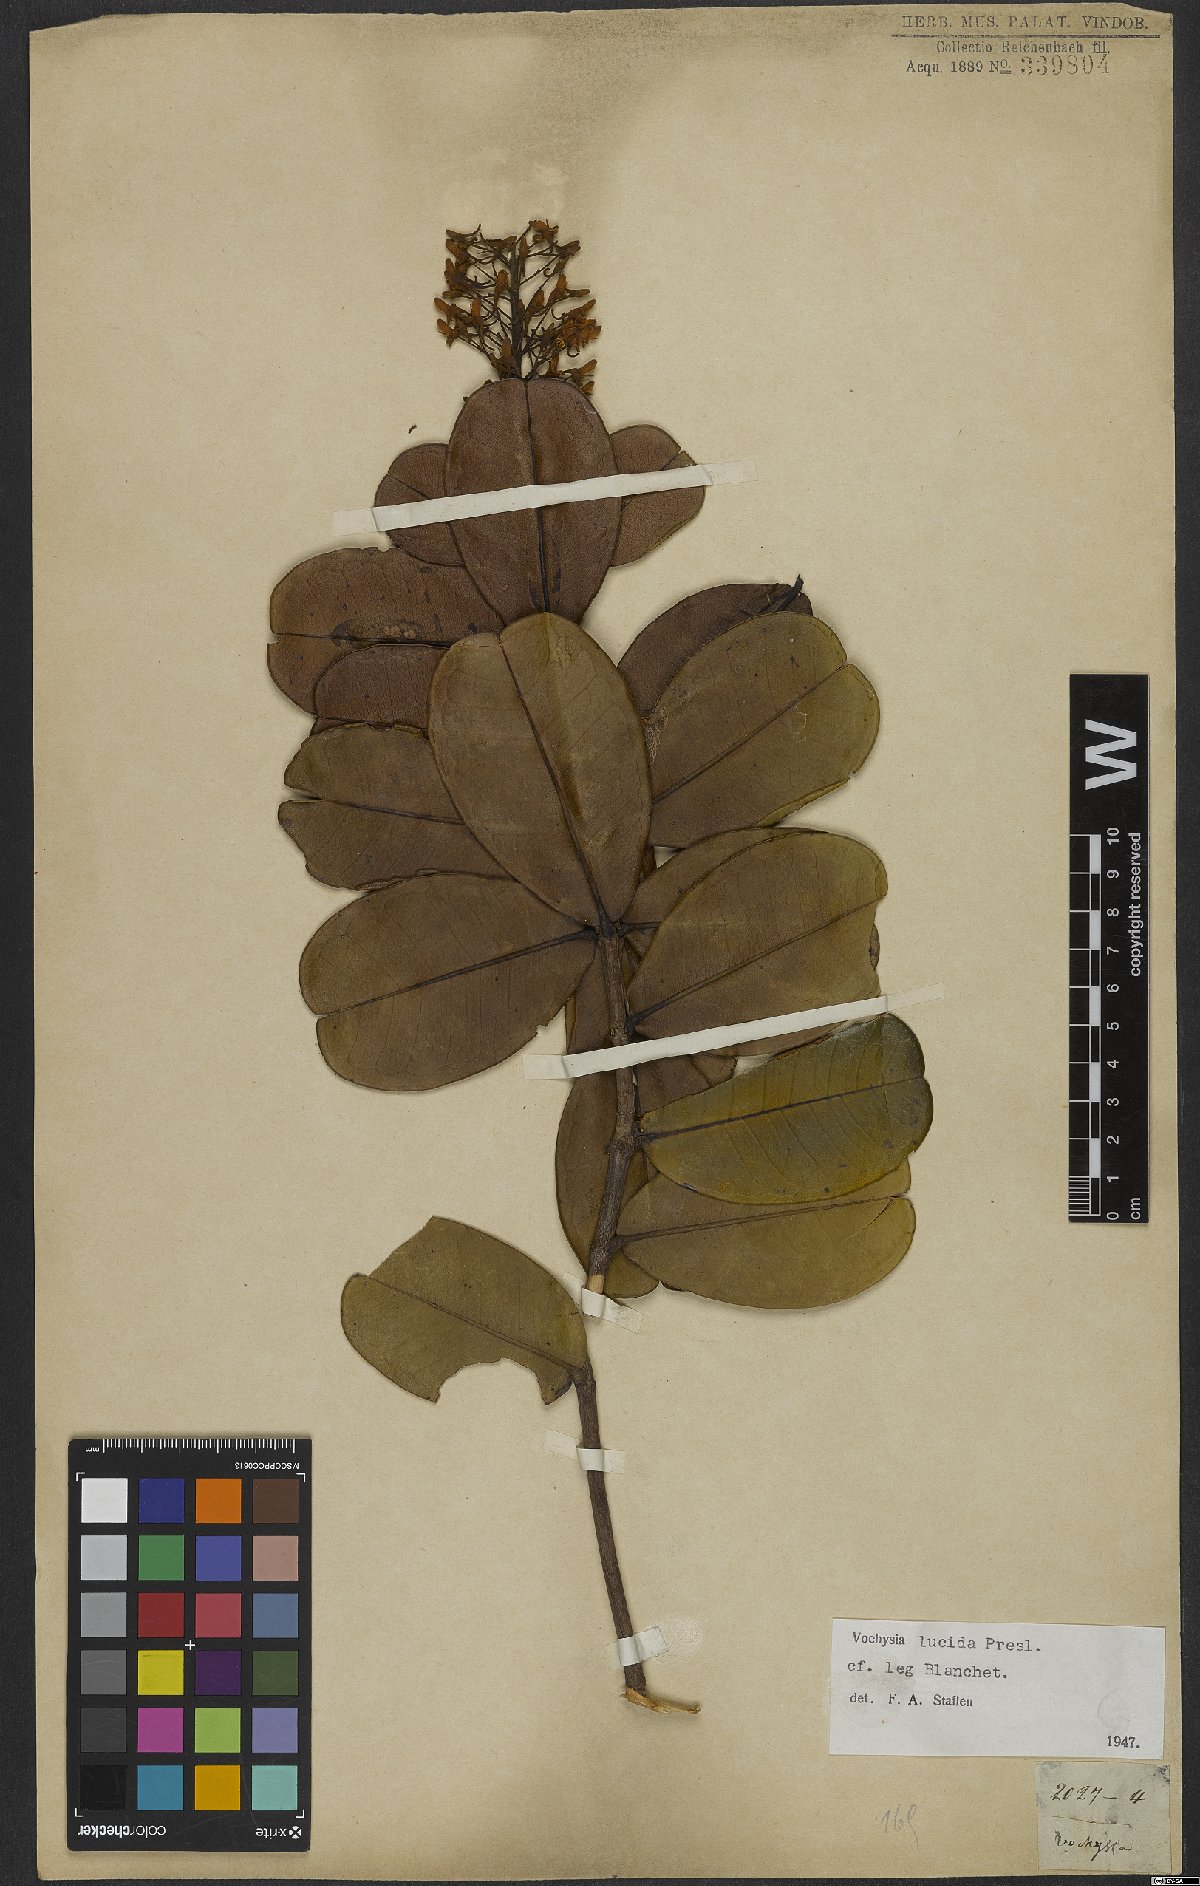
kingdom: Plantae
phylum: Tracheophyta
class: Magnoliopsida
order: Myrtales
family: Vochysiaceae
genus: Vochysia
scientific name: Vochysia lucida
